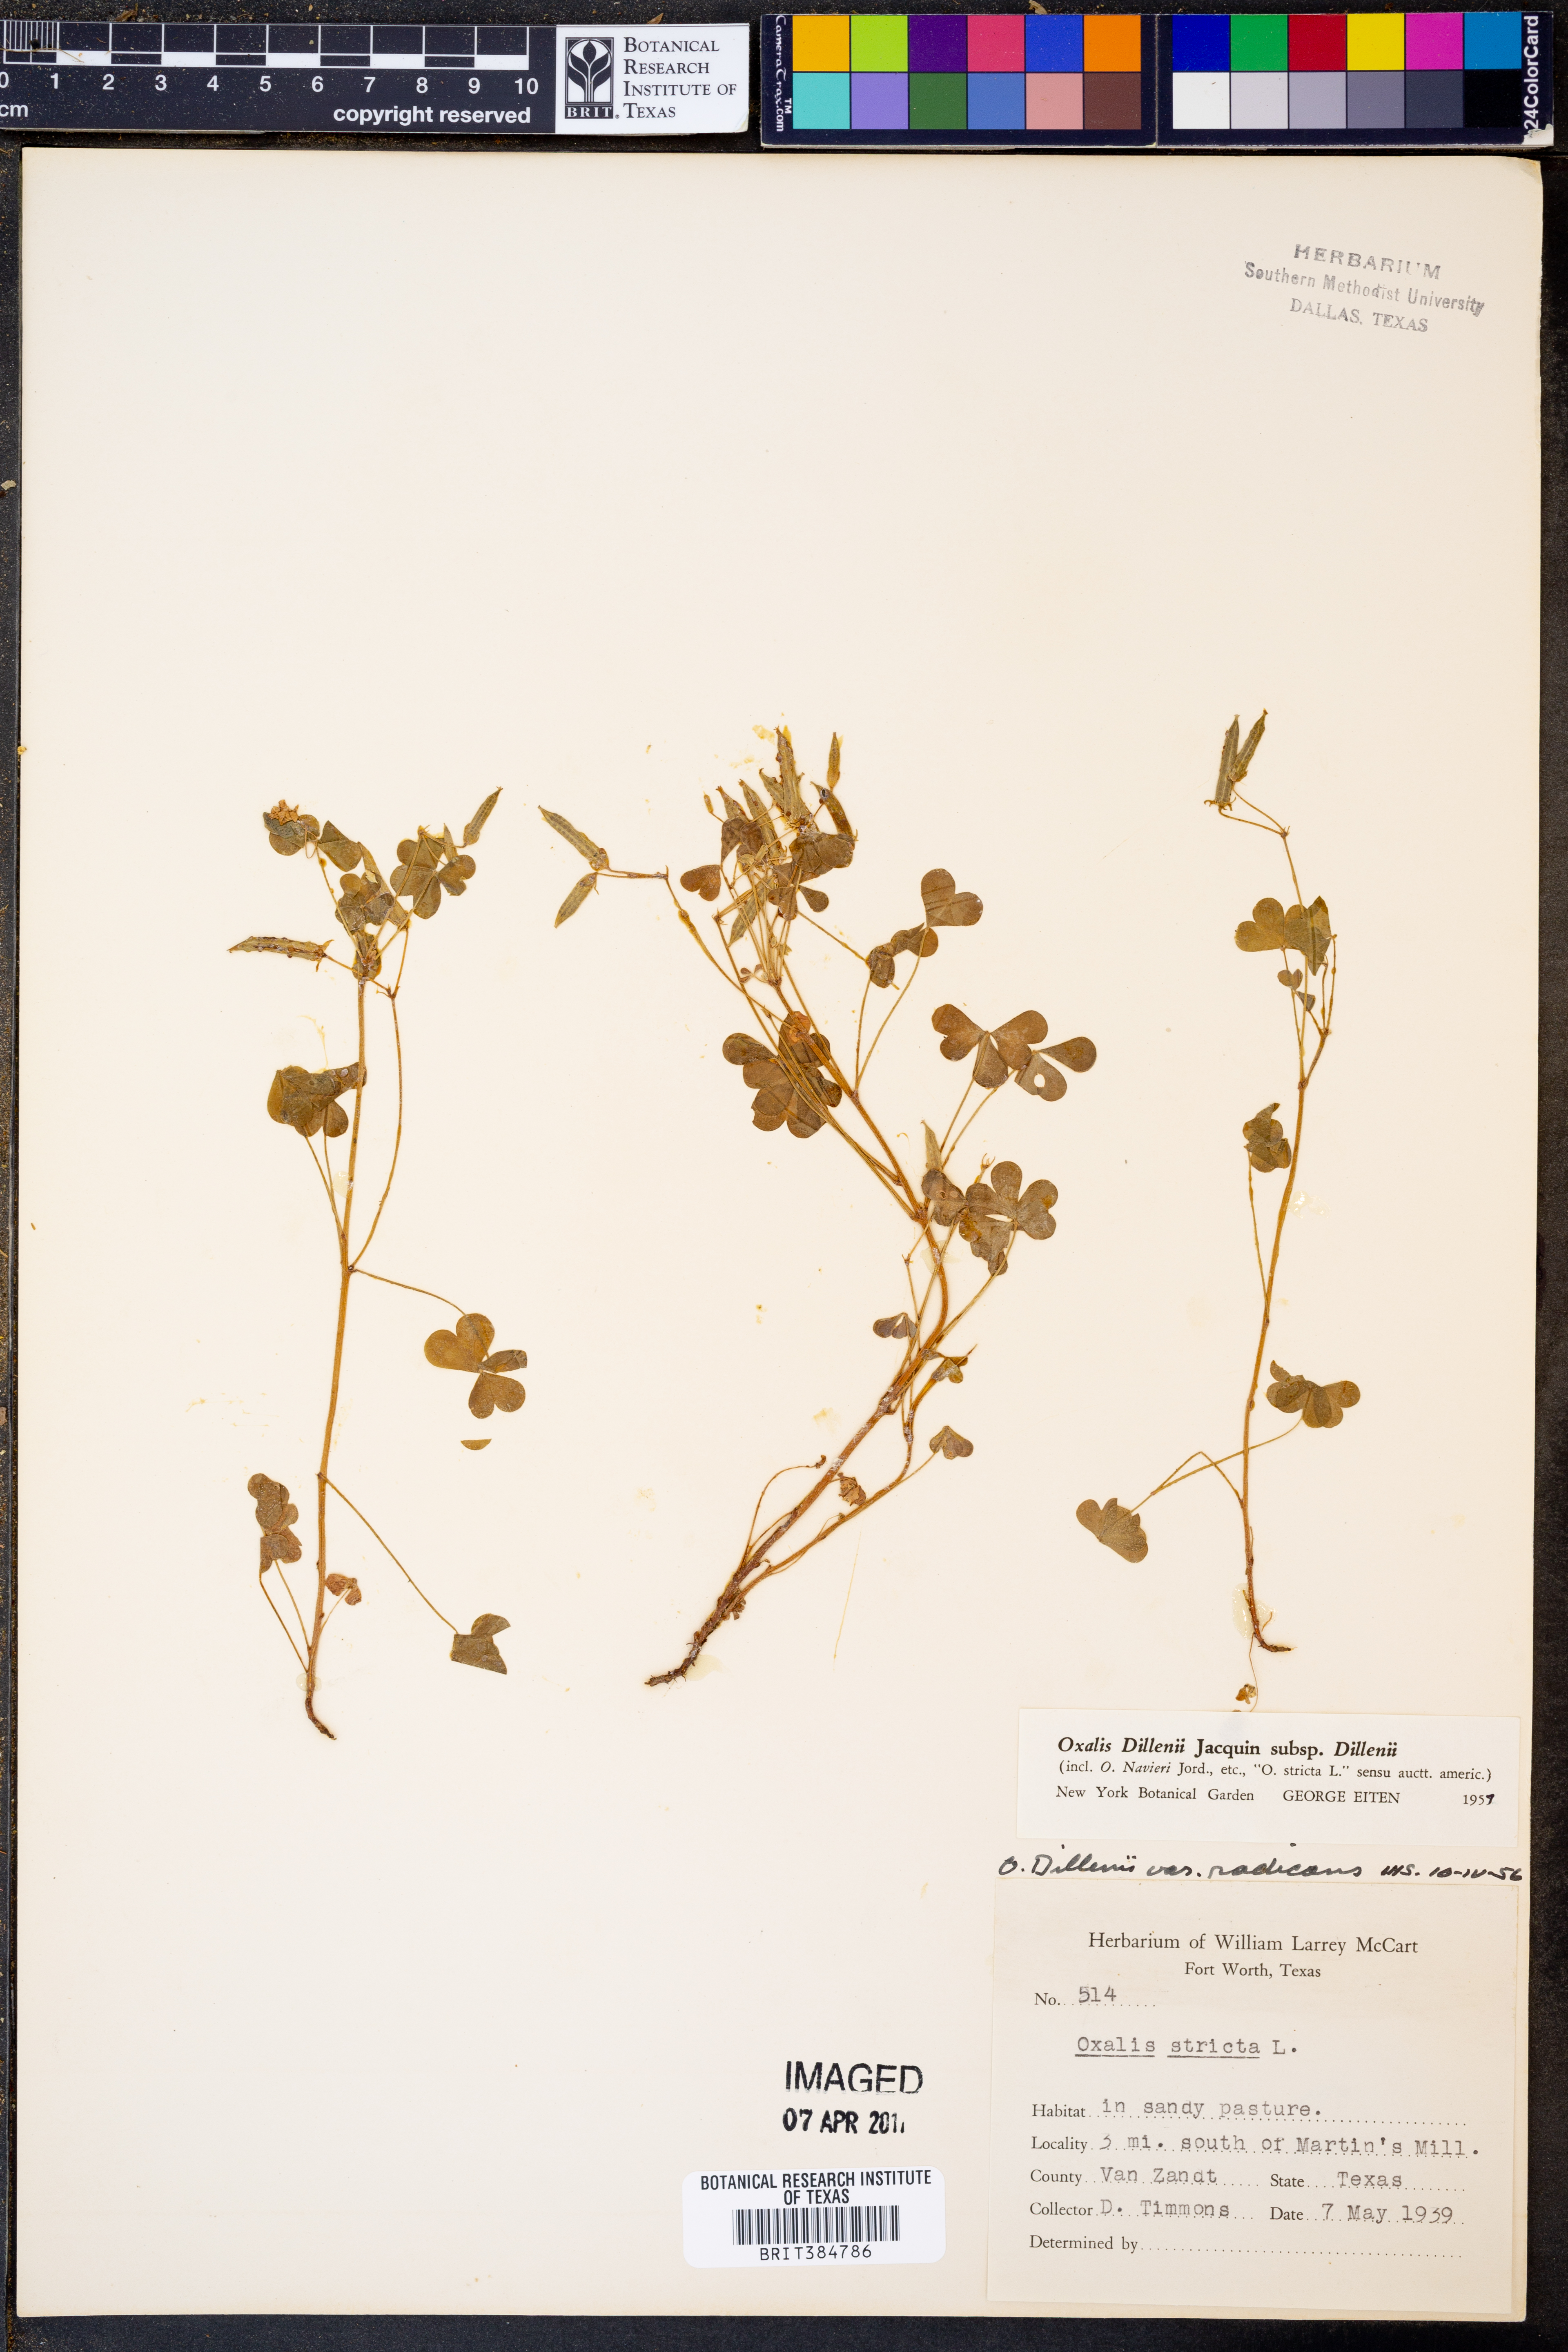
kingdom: Plantae
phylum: Tracheophyta
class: Magnoliopsida
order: Oxalidales
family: Oxalidaceae
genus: Oxalis
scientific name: Oxalis dillenii
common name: Sussex yellow-sorrel
